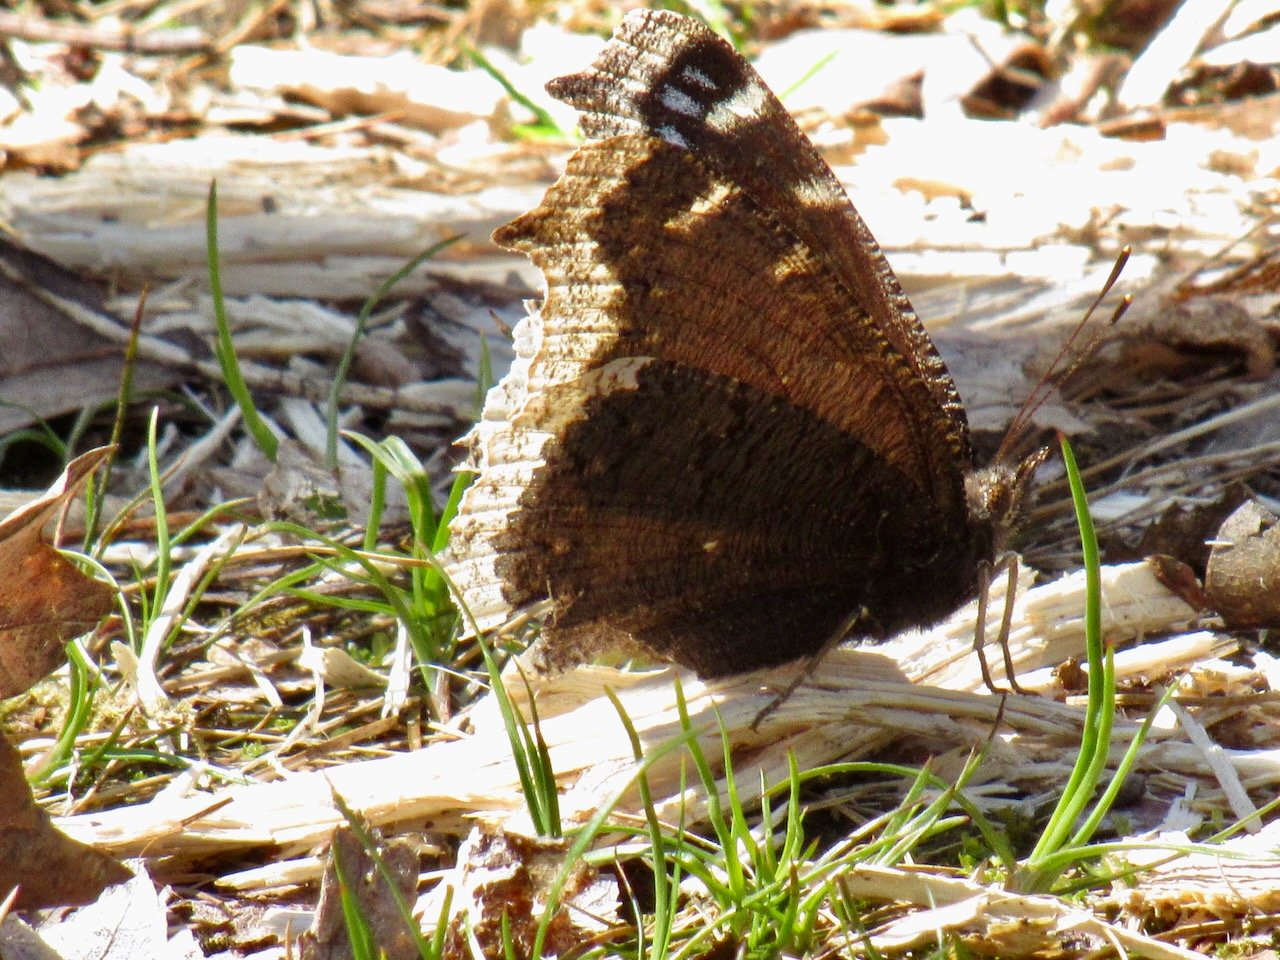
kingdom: Animalia
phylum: Arthropoda
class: Insecta
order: Lepidoptera
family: Nymphalidae
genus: Nymphalis
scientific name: Nymphalis antiopa
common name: Mourning Cloak
